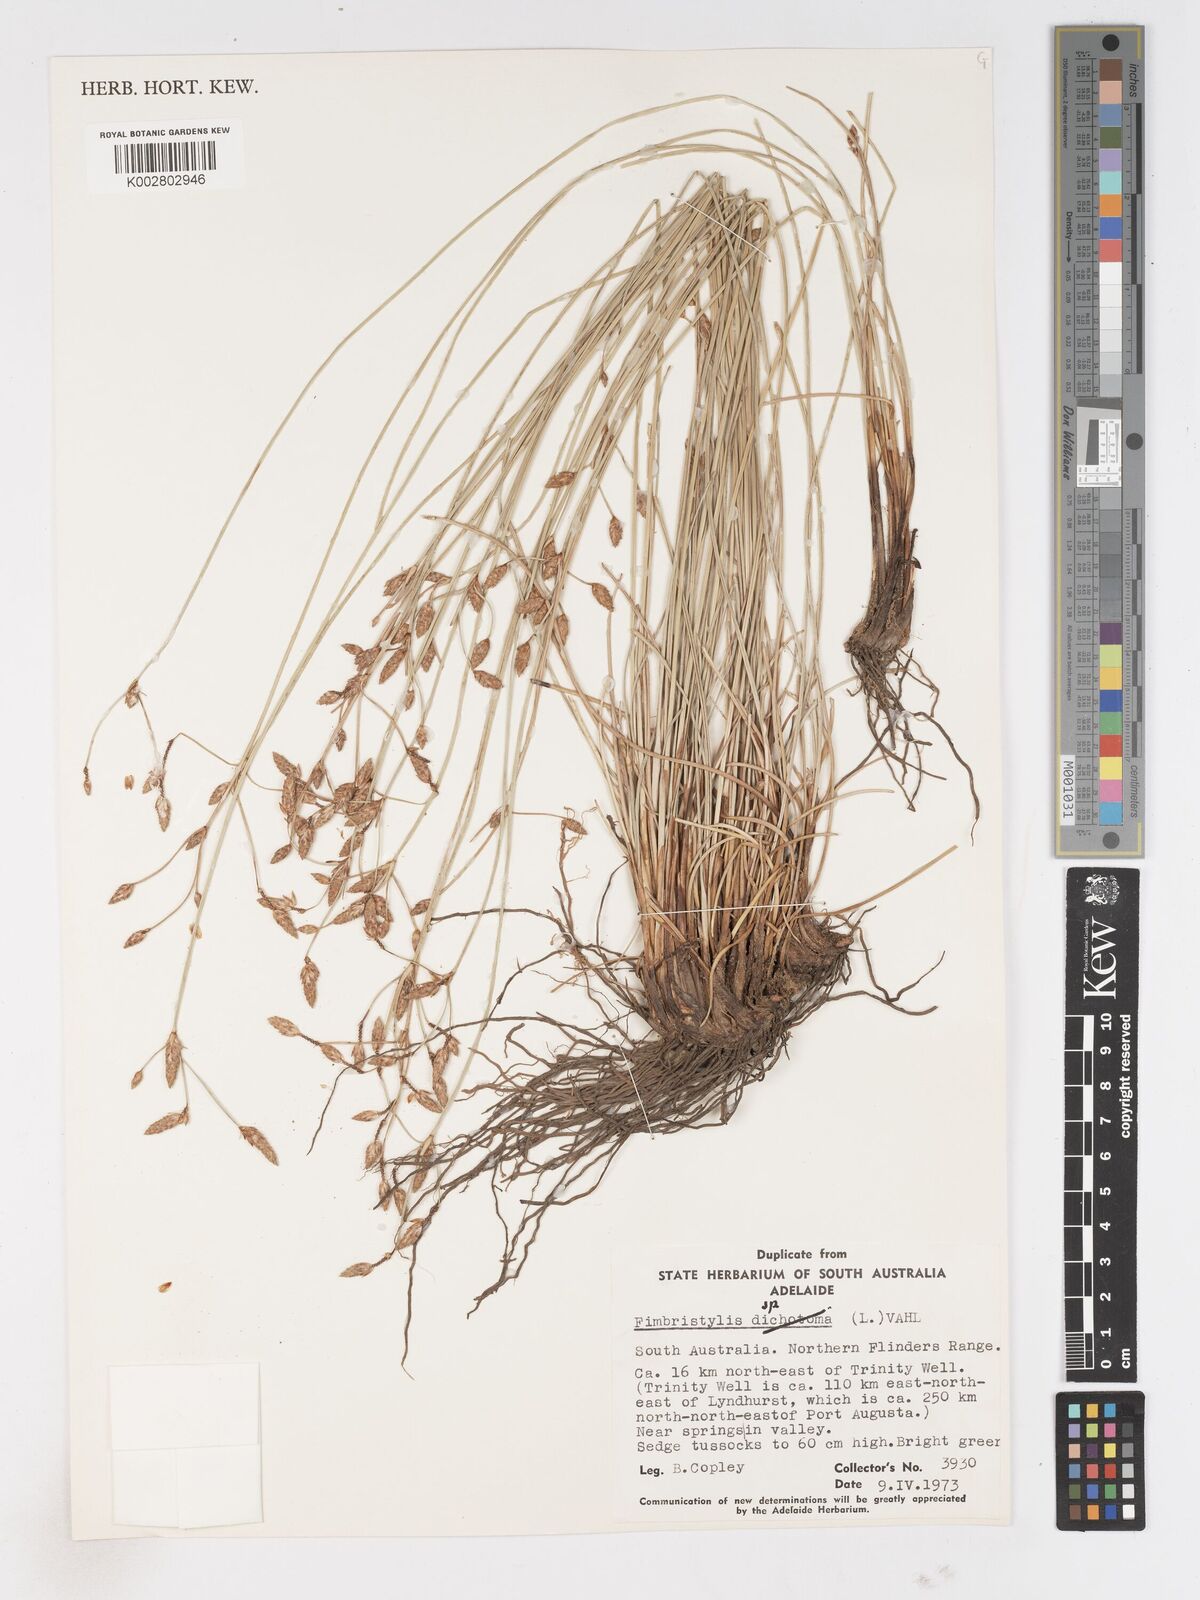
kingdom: Plantae
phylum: Tracheophyta
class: Liliopsida
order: Poales
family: Cyperaceae
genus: Fimbristylis
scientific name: Fimbristylis
